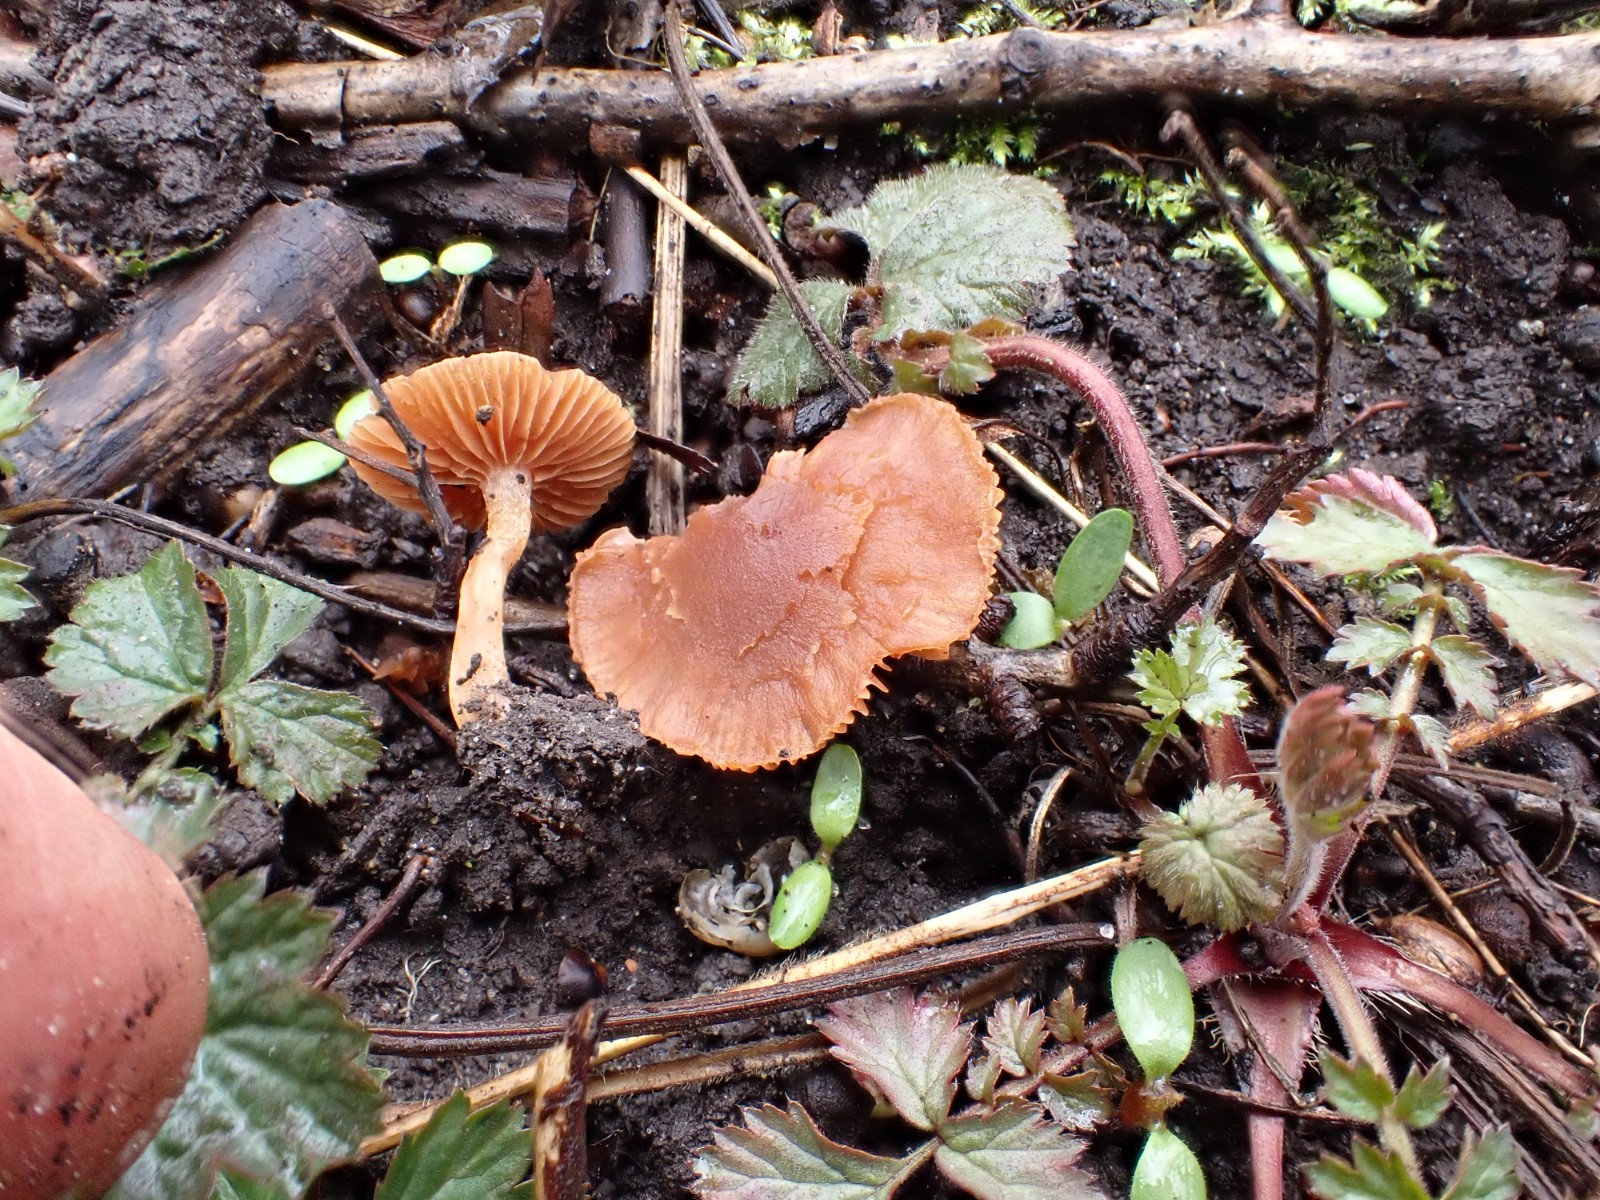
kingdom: Fungi
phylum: Basidiomycota
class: Agaricomycetes
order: Agaricales
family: Tubariaceae
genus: Tubaria
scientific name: Tubaria furfuracea
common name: kliddet fnughat
